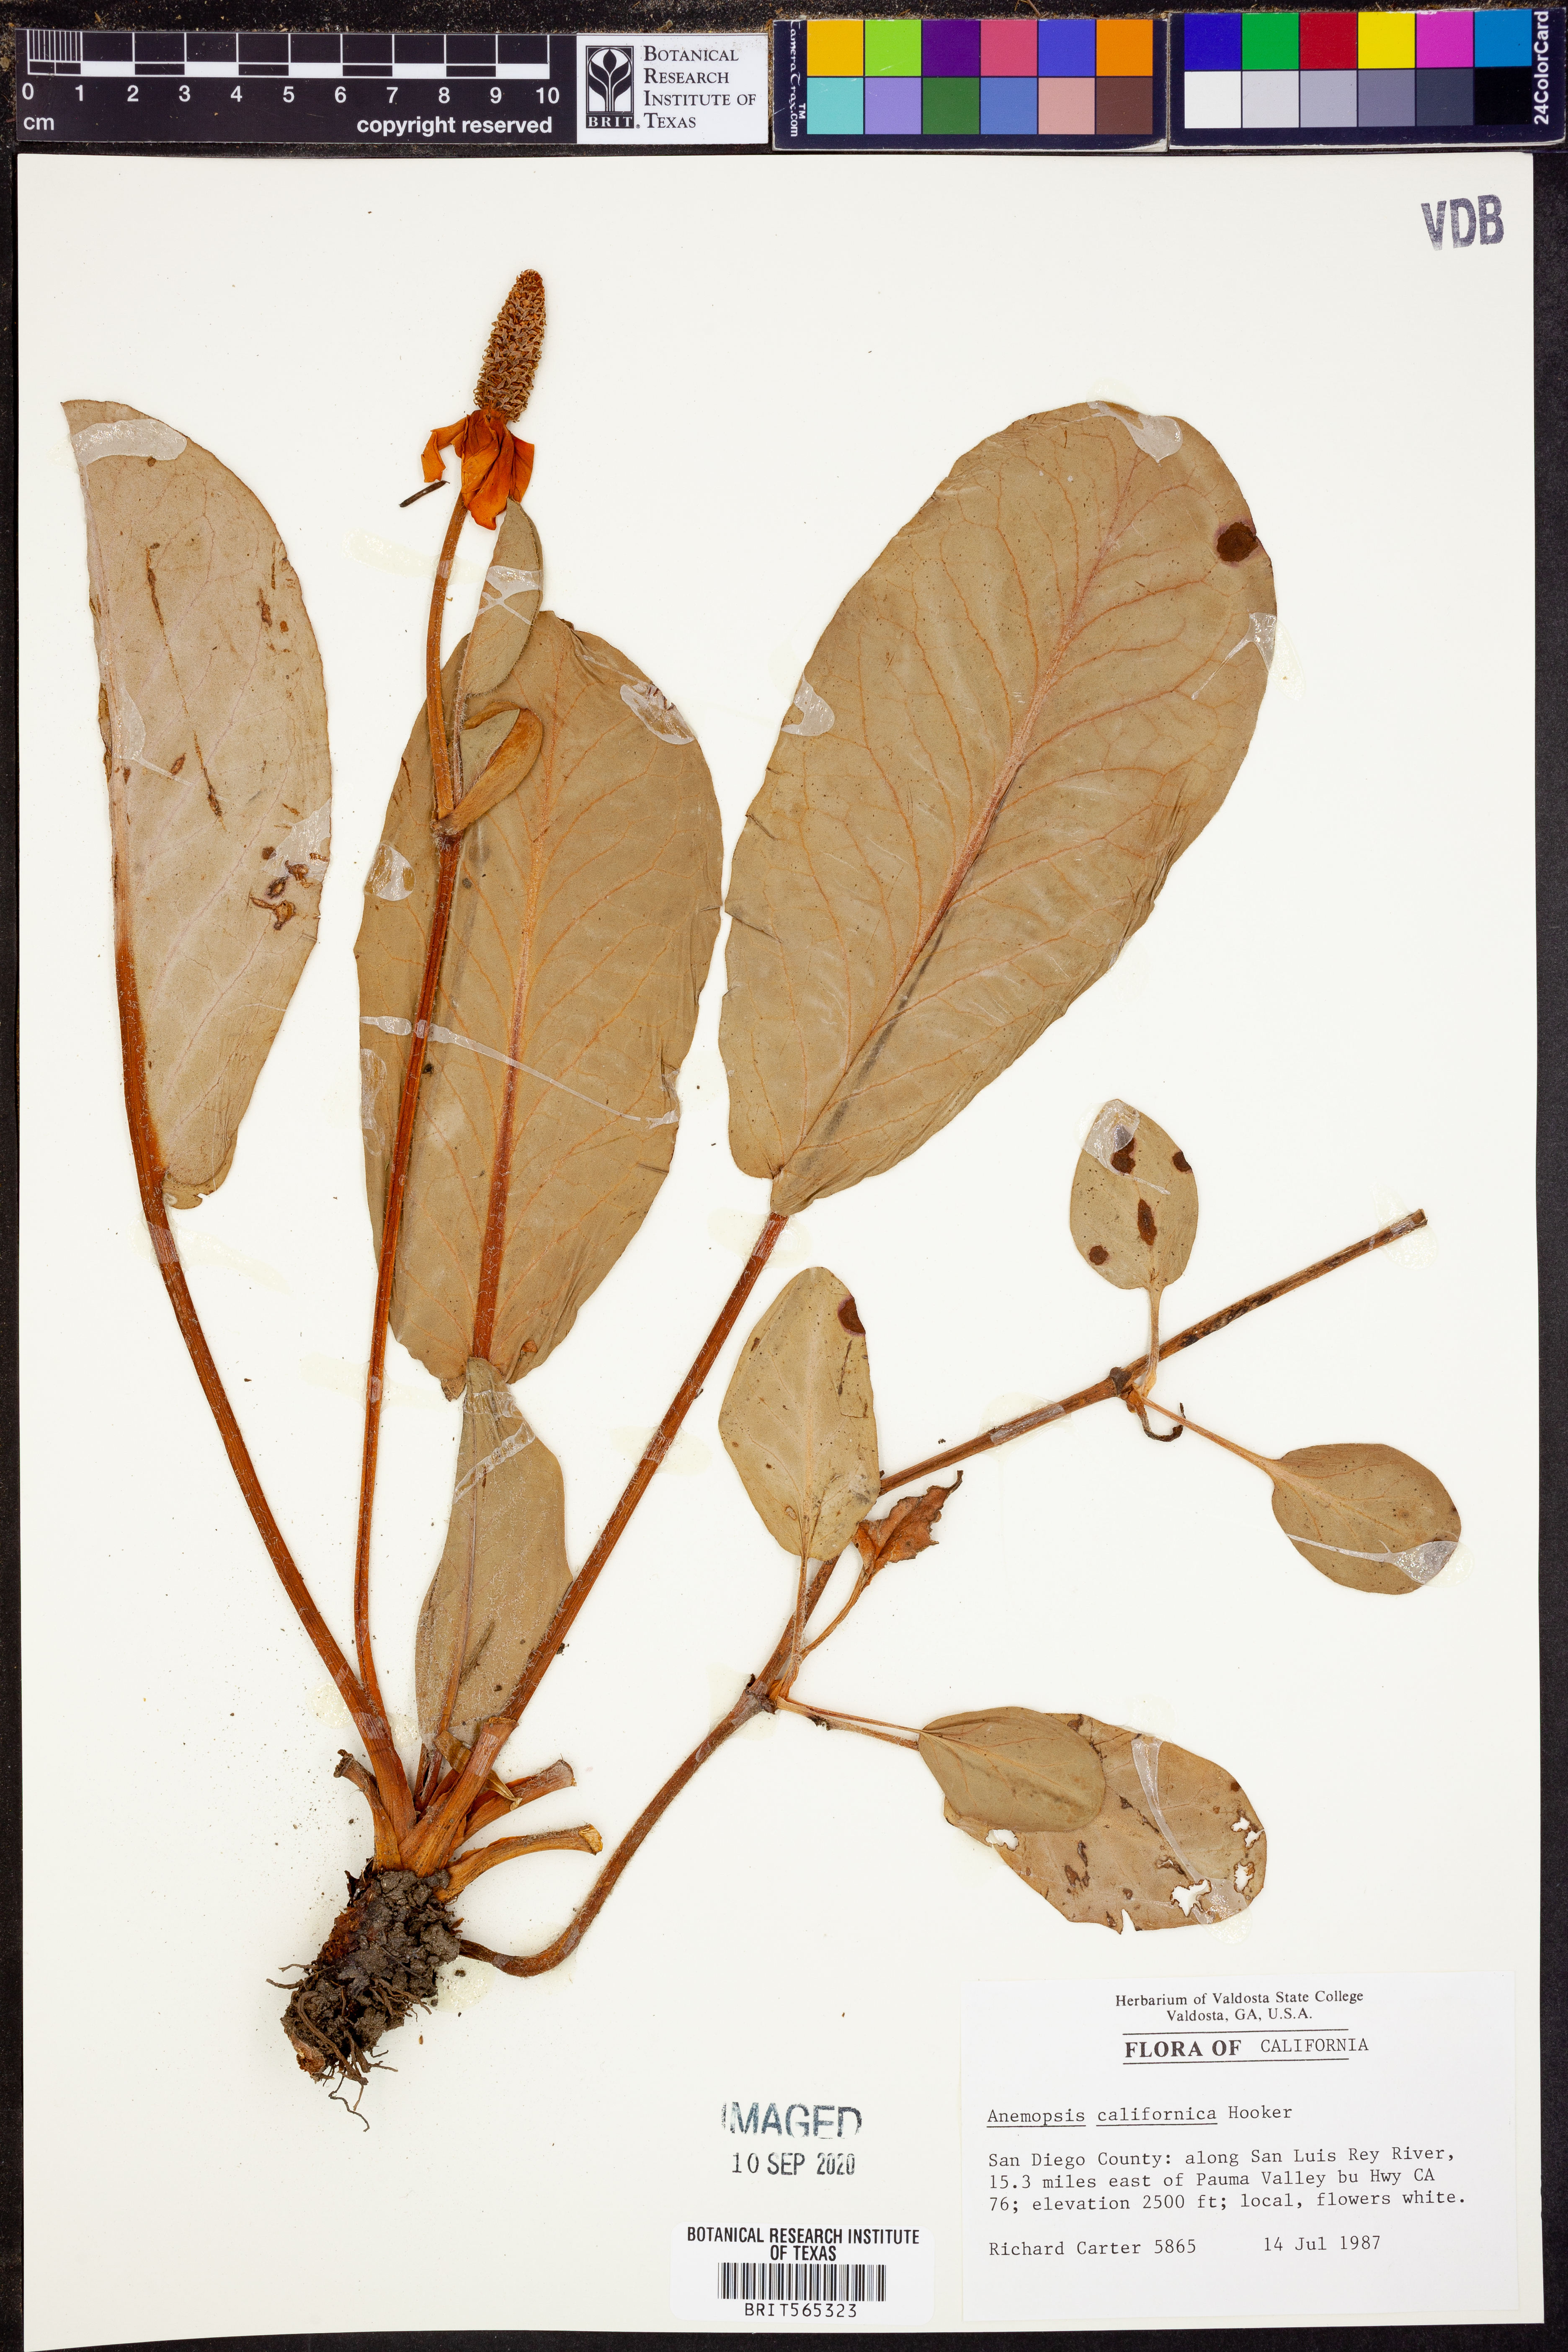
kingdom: Plantae
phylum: Tracheophyta
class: Magnoliopsida
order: Piperales
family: Saururaceae
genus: Anemopsis
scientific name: Anemopsis californica
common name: Apache-beads
